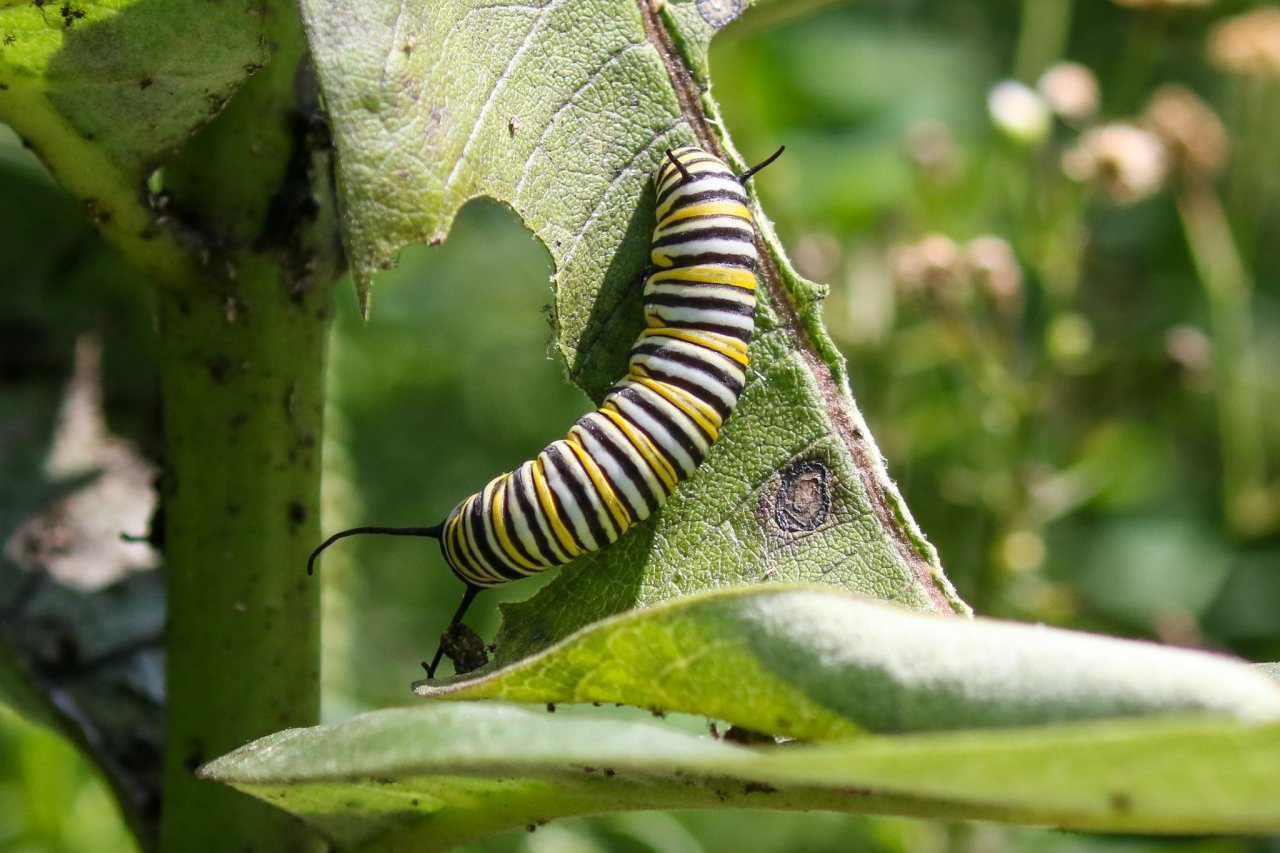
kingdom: Animalia
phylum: Arthropoda
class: Insecta
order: Lepidoptera
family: Nymphalidae
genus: Danaus
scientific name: Danaus plexippus
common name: Monarch
